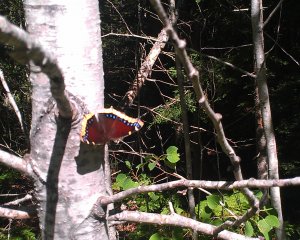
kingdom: Animalia
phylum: Arthropoda
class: Insecta
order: Lepidoptera
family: Nymphalidae
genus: Nymphalis
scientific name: Nymphalis antiopa
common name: Mourning Cloak
